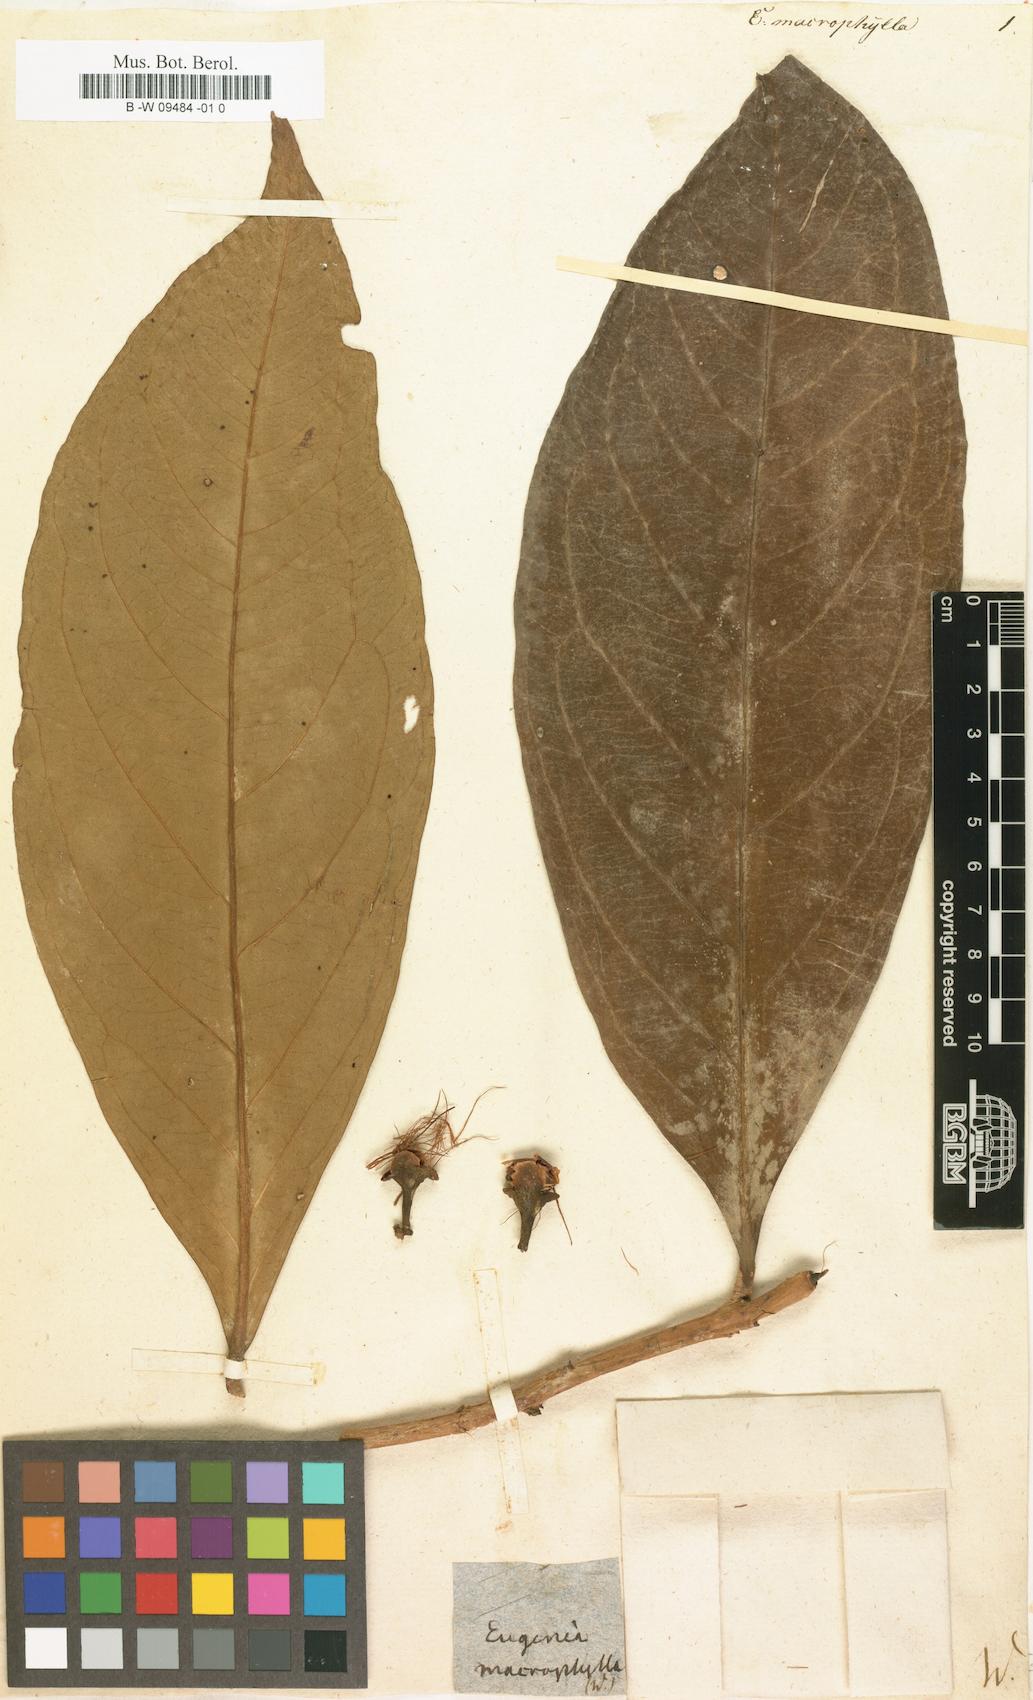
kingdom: Plantae
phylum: Tracheophyta
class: Magnoliopsida
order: Myrtales
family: Myrtaceae
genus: Eugenia
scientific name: Eugenia
